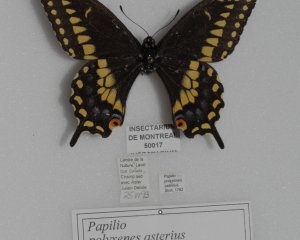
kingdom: Animalia
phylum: Arthropoda
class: Insecta
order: Lepidoptera
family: Papilionidae
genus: Papilio
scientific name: Papilio polyxenes
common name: Black Swallowtail
